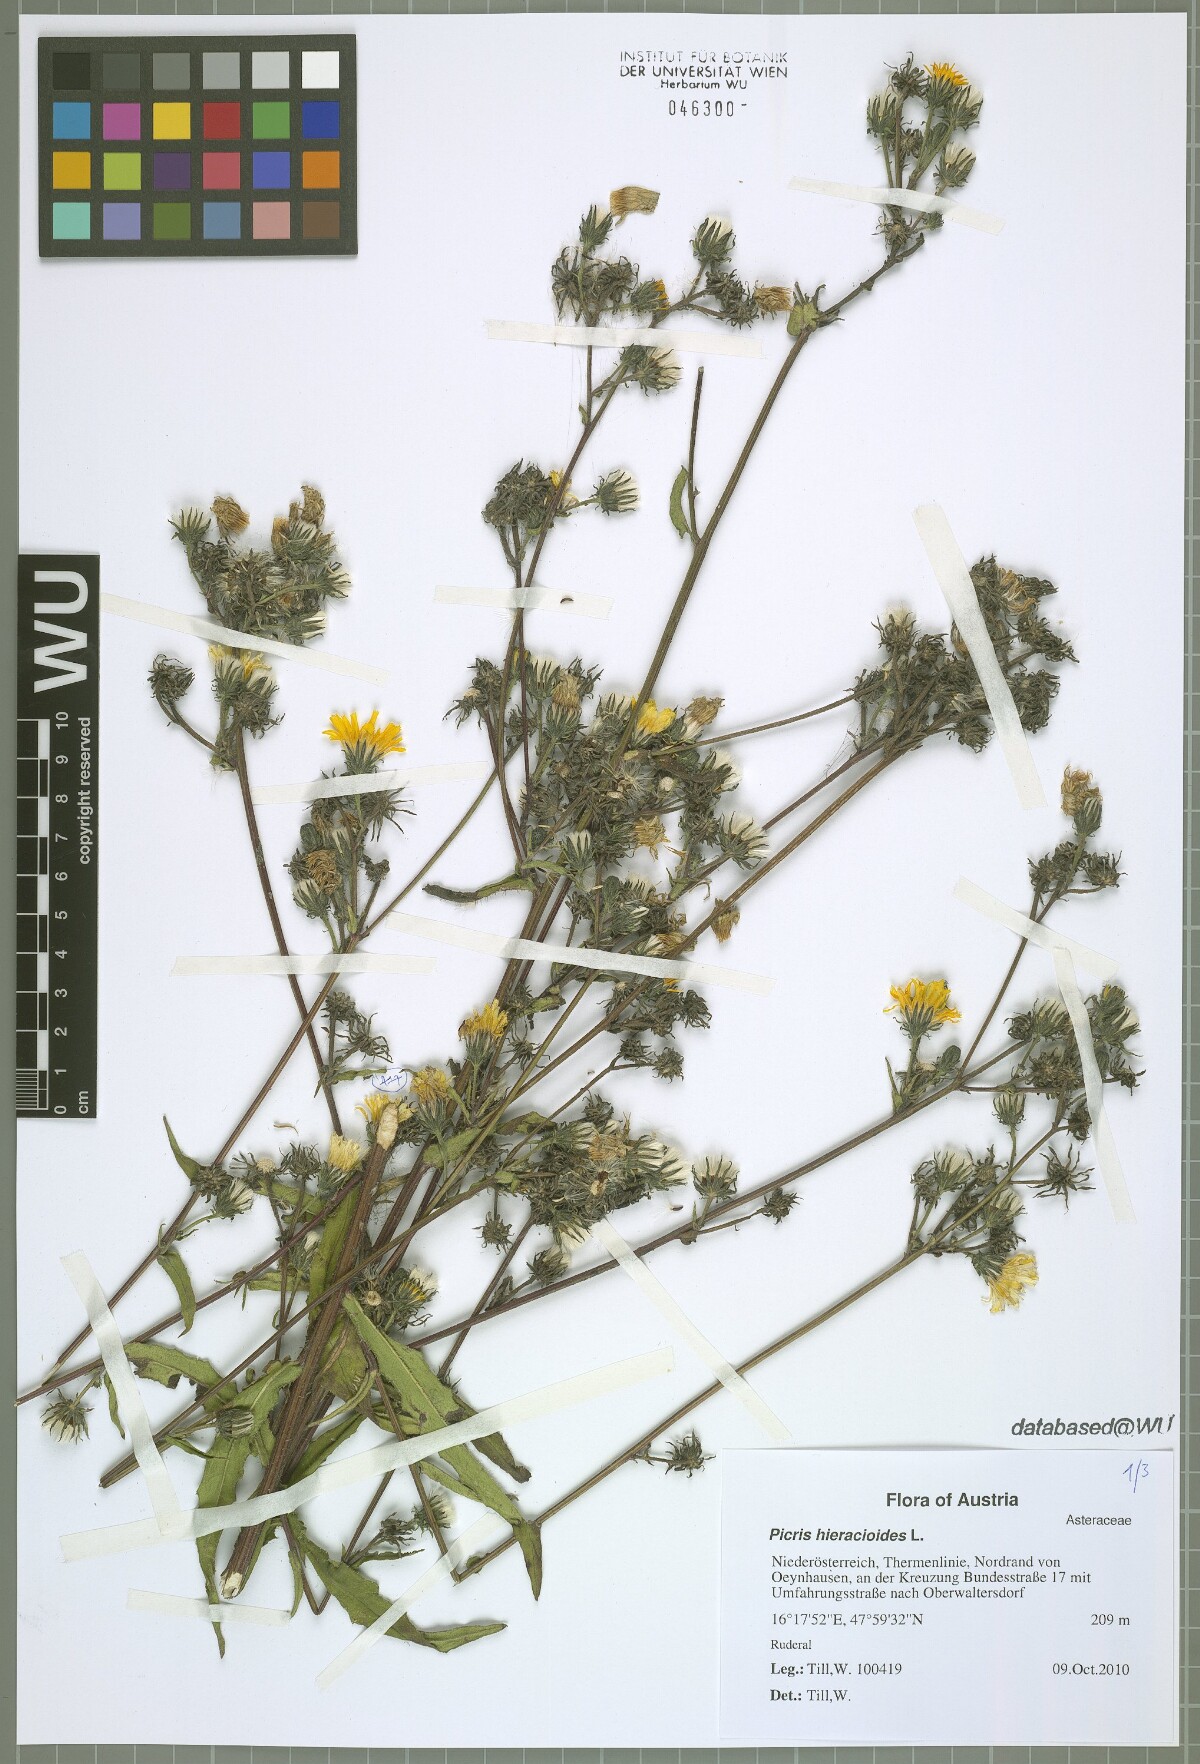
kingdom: Plantae
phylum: Tracheophyta
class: Magnoliopsida
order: Asterales
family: Asteraceae
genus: Picris
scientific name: Picris hieracioides
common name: Hawkweed oxtongue
